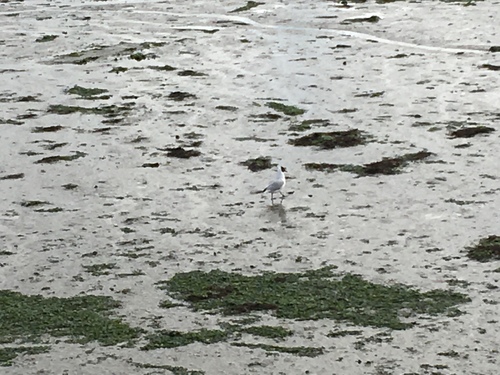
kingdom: Animalia
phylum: Chordata
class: Aves
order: Charadriiformes
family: Laridae
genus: Chroicocephalus
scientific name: Chroicocephalus ridibundus
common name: Black-headed gull
